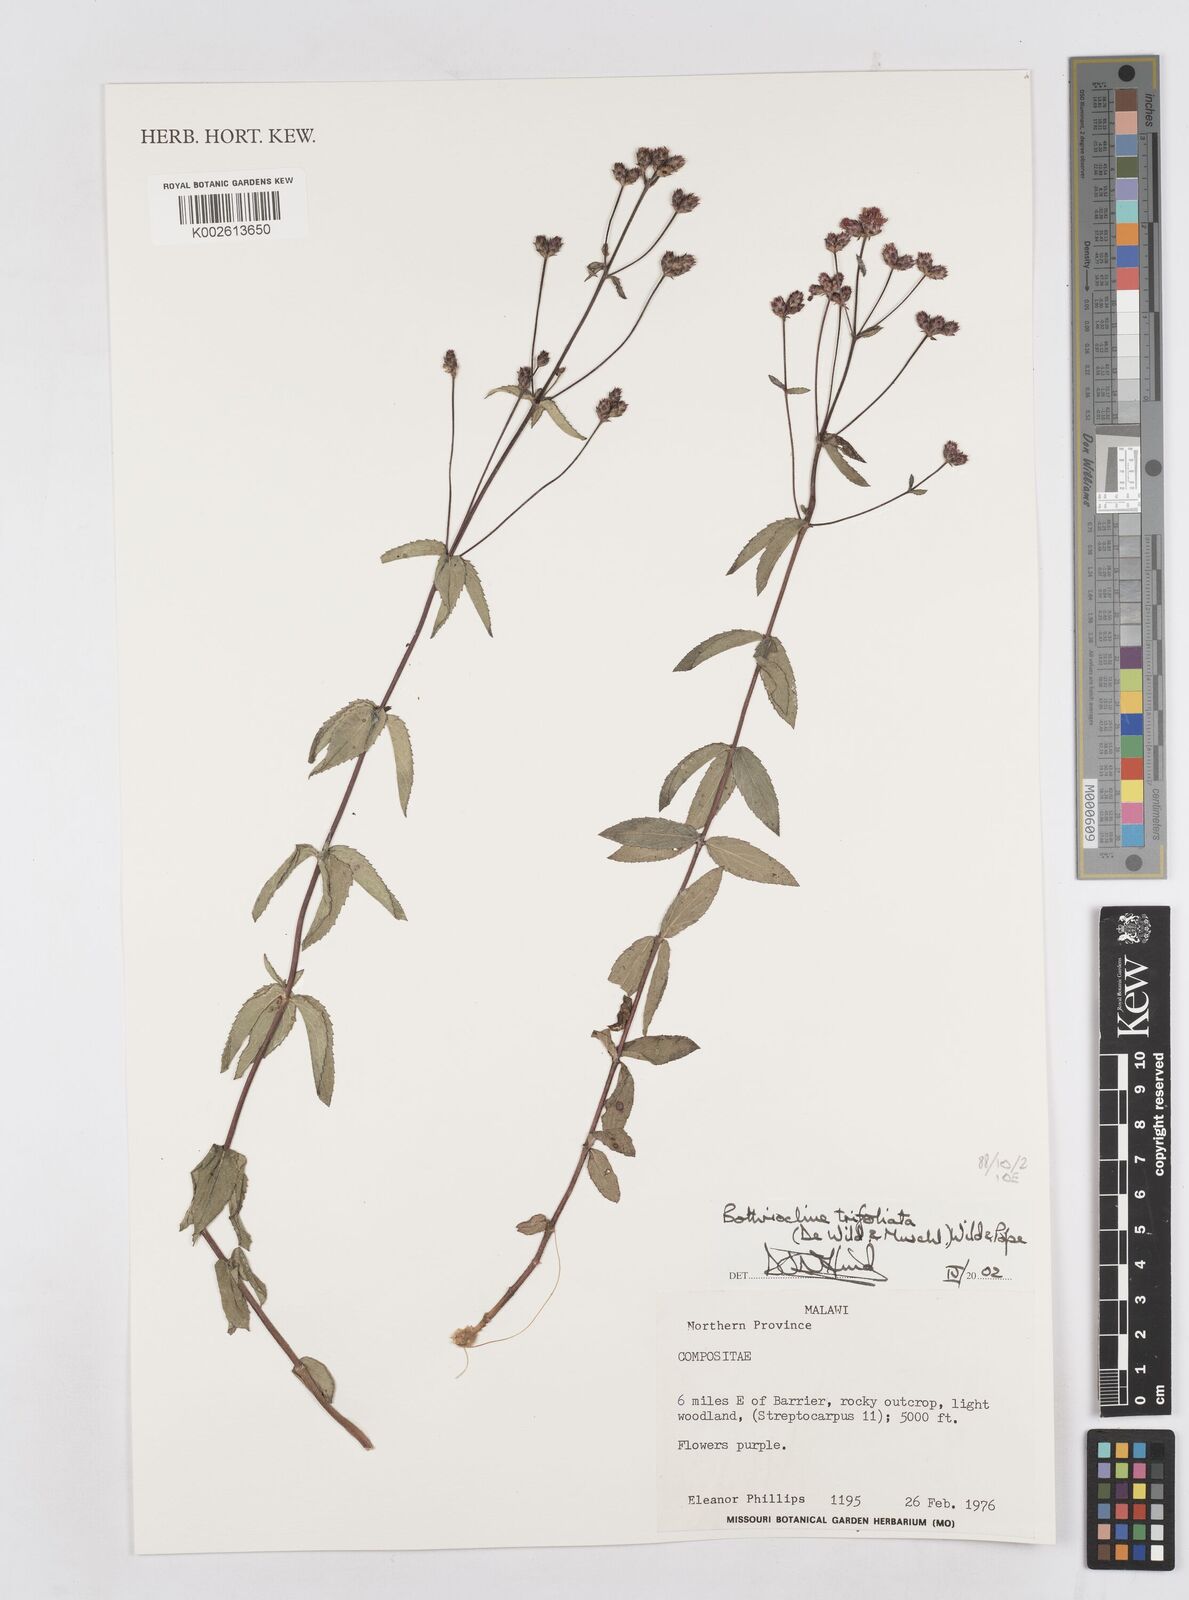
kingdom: Plantae
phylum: Tracheophyta
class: Magnoliopsida
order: Asterales
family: Asteraceae
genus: Bothriocline
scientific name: Bothriocline trifoliata
